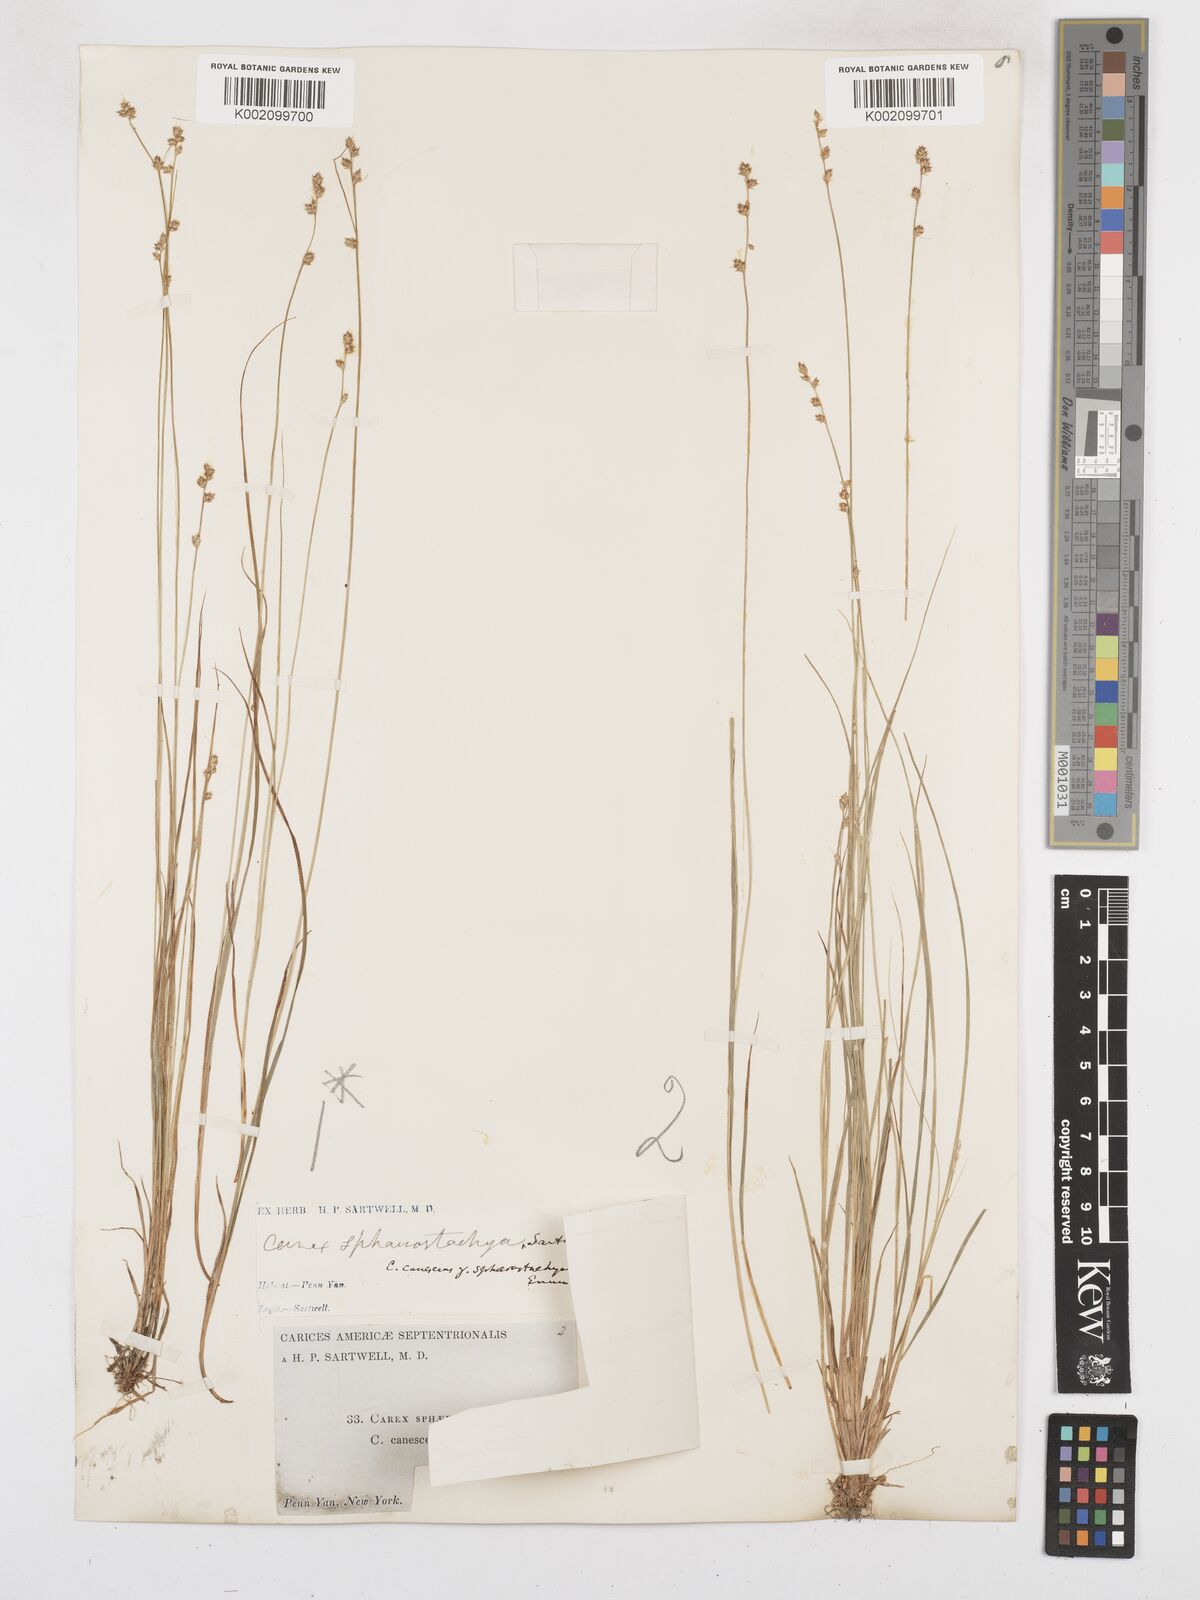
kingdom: Plantae
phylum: Tracheophyta
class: Liliopsida
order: Poales
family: Cyperaceae
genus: Carex
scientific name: Carex brunnescens
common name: Brown sedge
